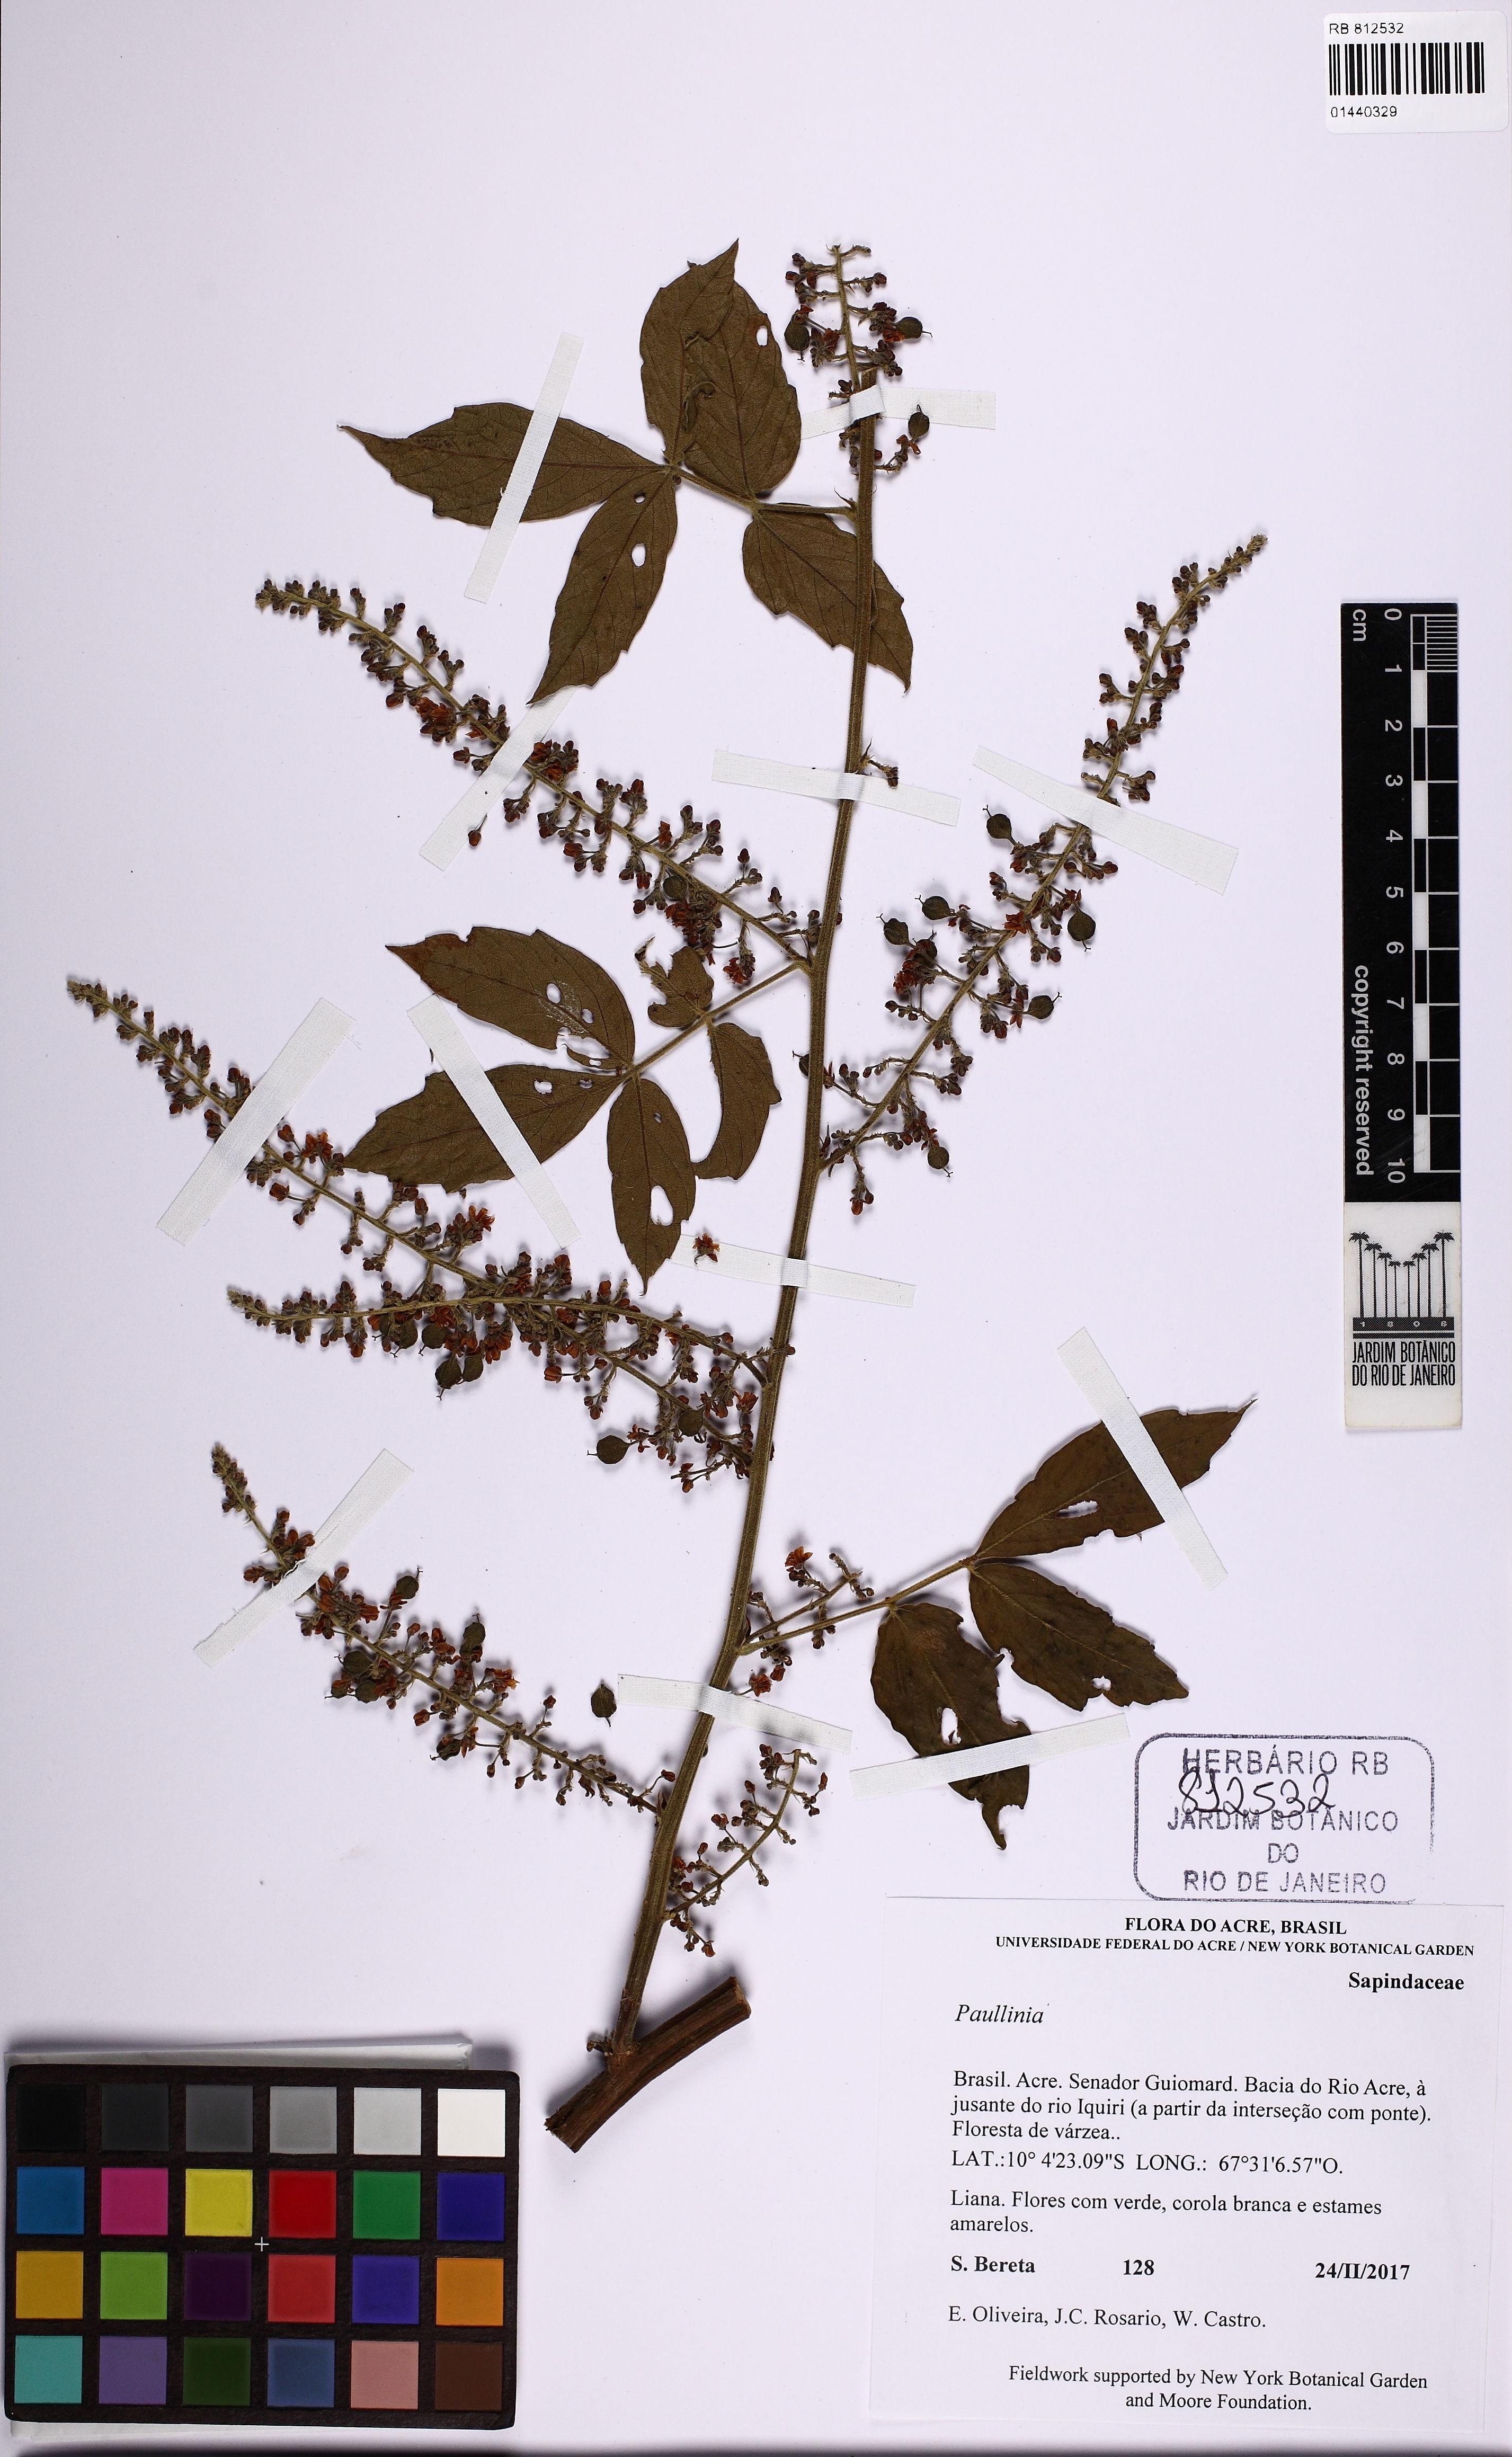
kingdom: Plantae
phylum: Tracheophyta
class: Magnoliopsida
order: Sapindales
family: Sapindaceae
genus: Paullinia
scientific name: Paullinia
